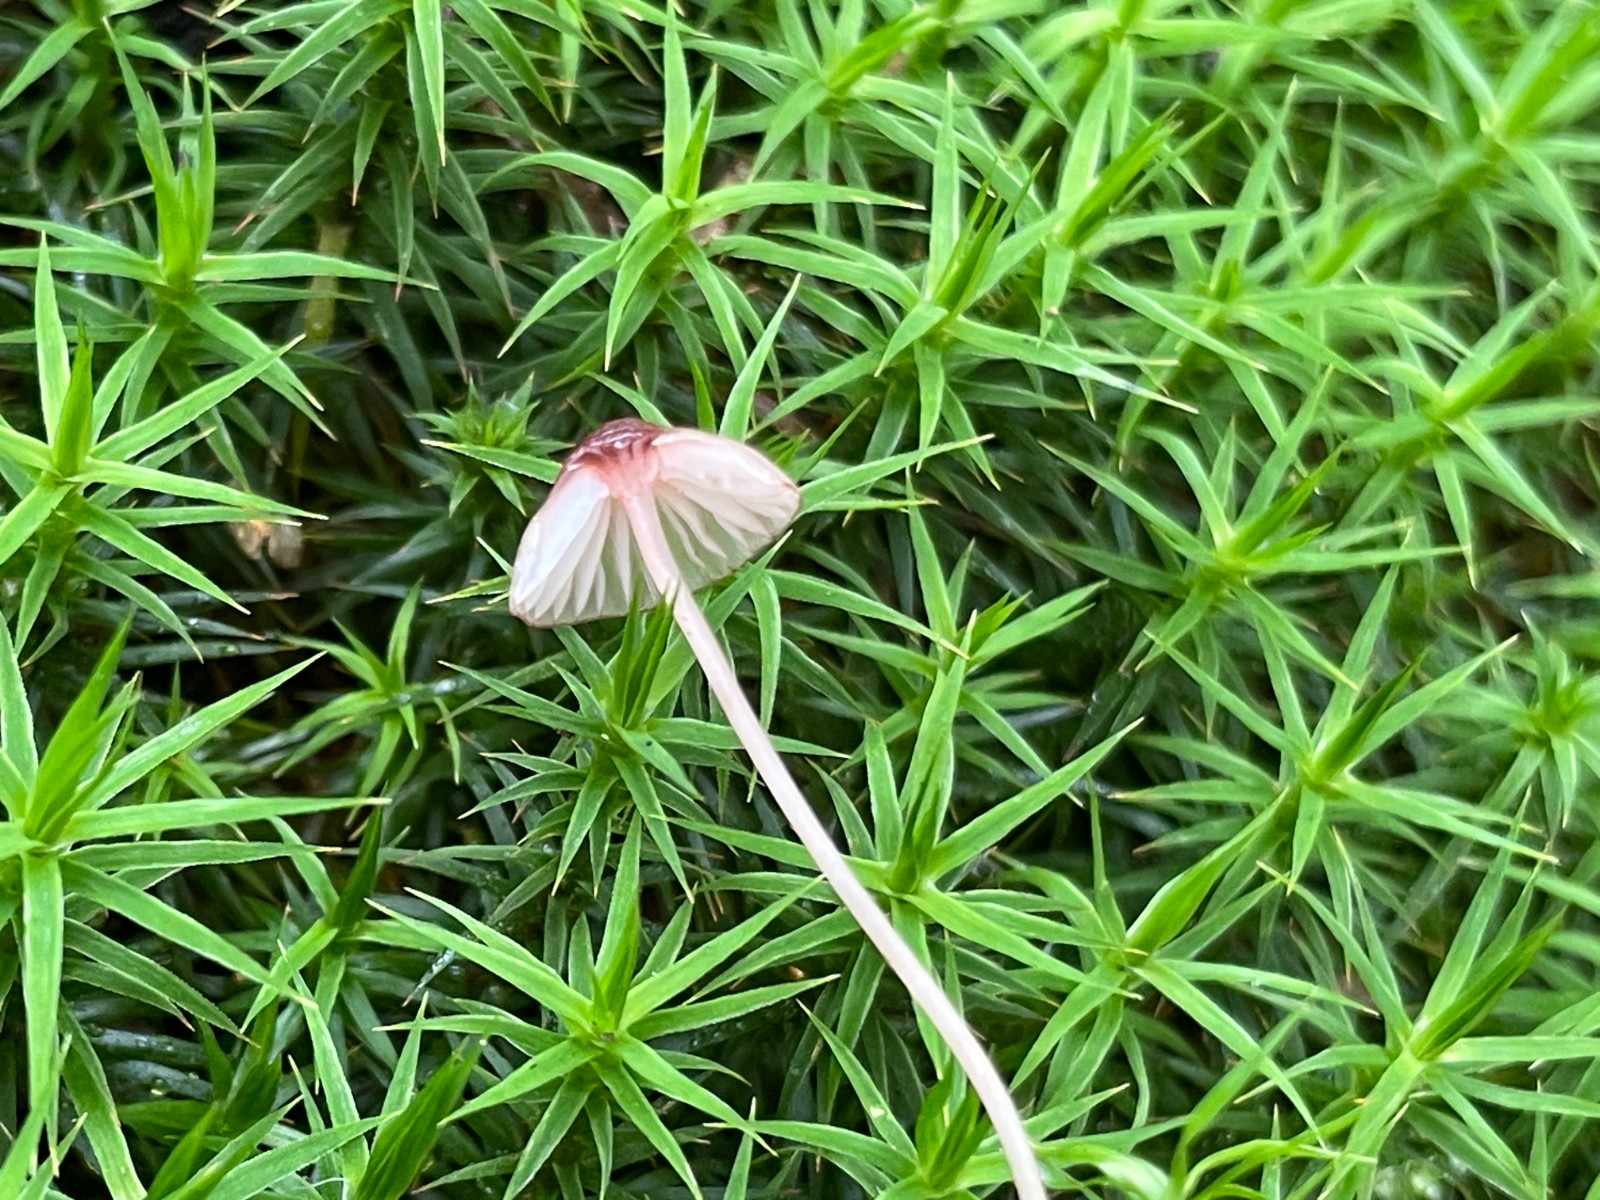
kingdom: Fungi
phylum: Basidiomycota
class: Agaricomycetes
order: Agaricales
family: Mycenaceae
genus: Mycena
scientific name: Mycena sanguinolenta
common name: rødmælket huesvamp
